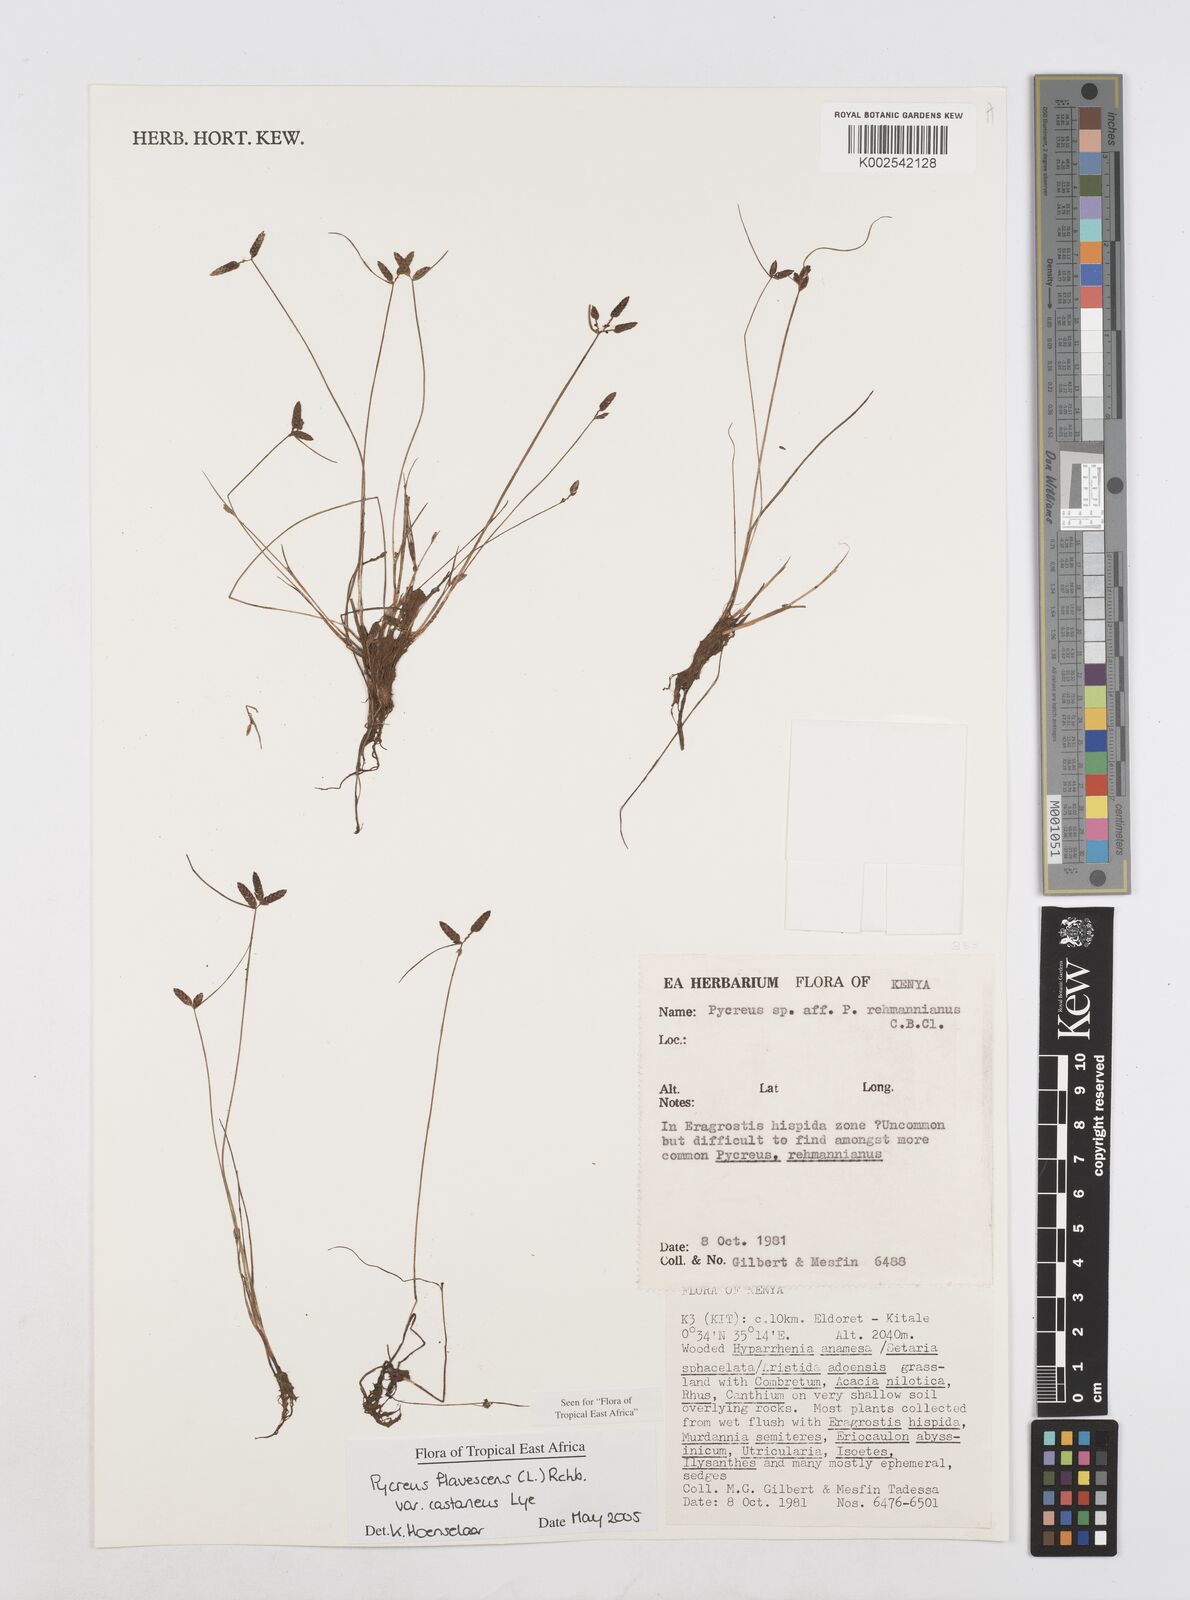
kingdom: Plantae
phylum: Tracheophyta
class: Liliopsida
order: Poales
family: Cyperaceae
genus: Cyperus
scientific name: Cyperus flavescens
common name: Yellow galingale
